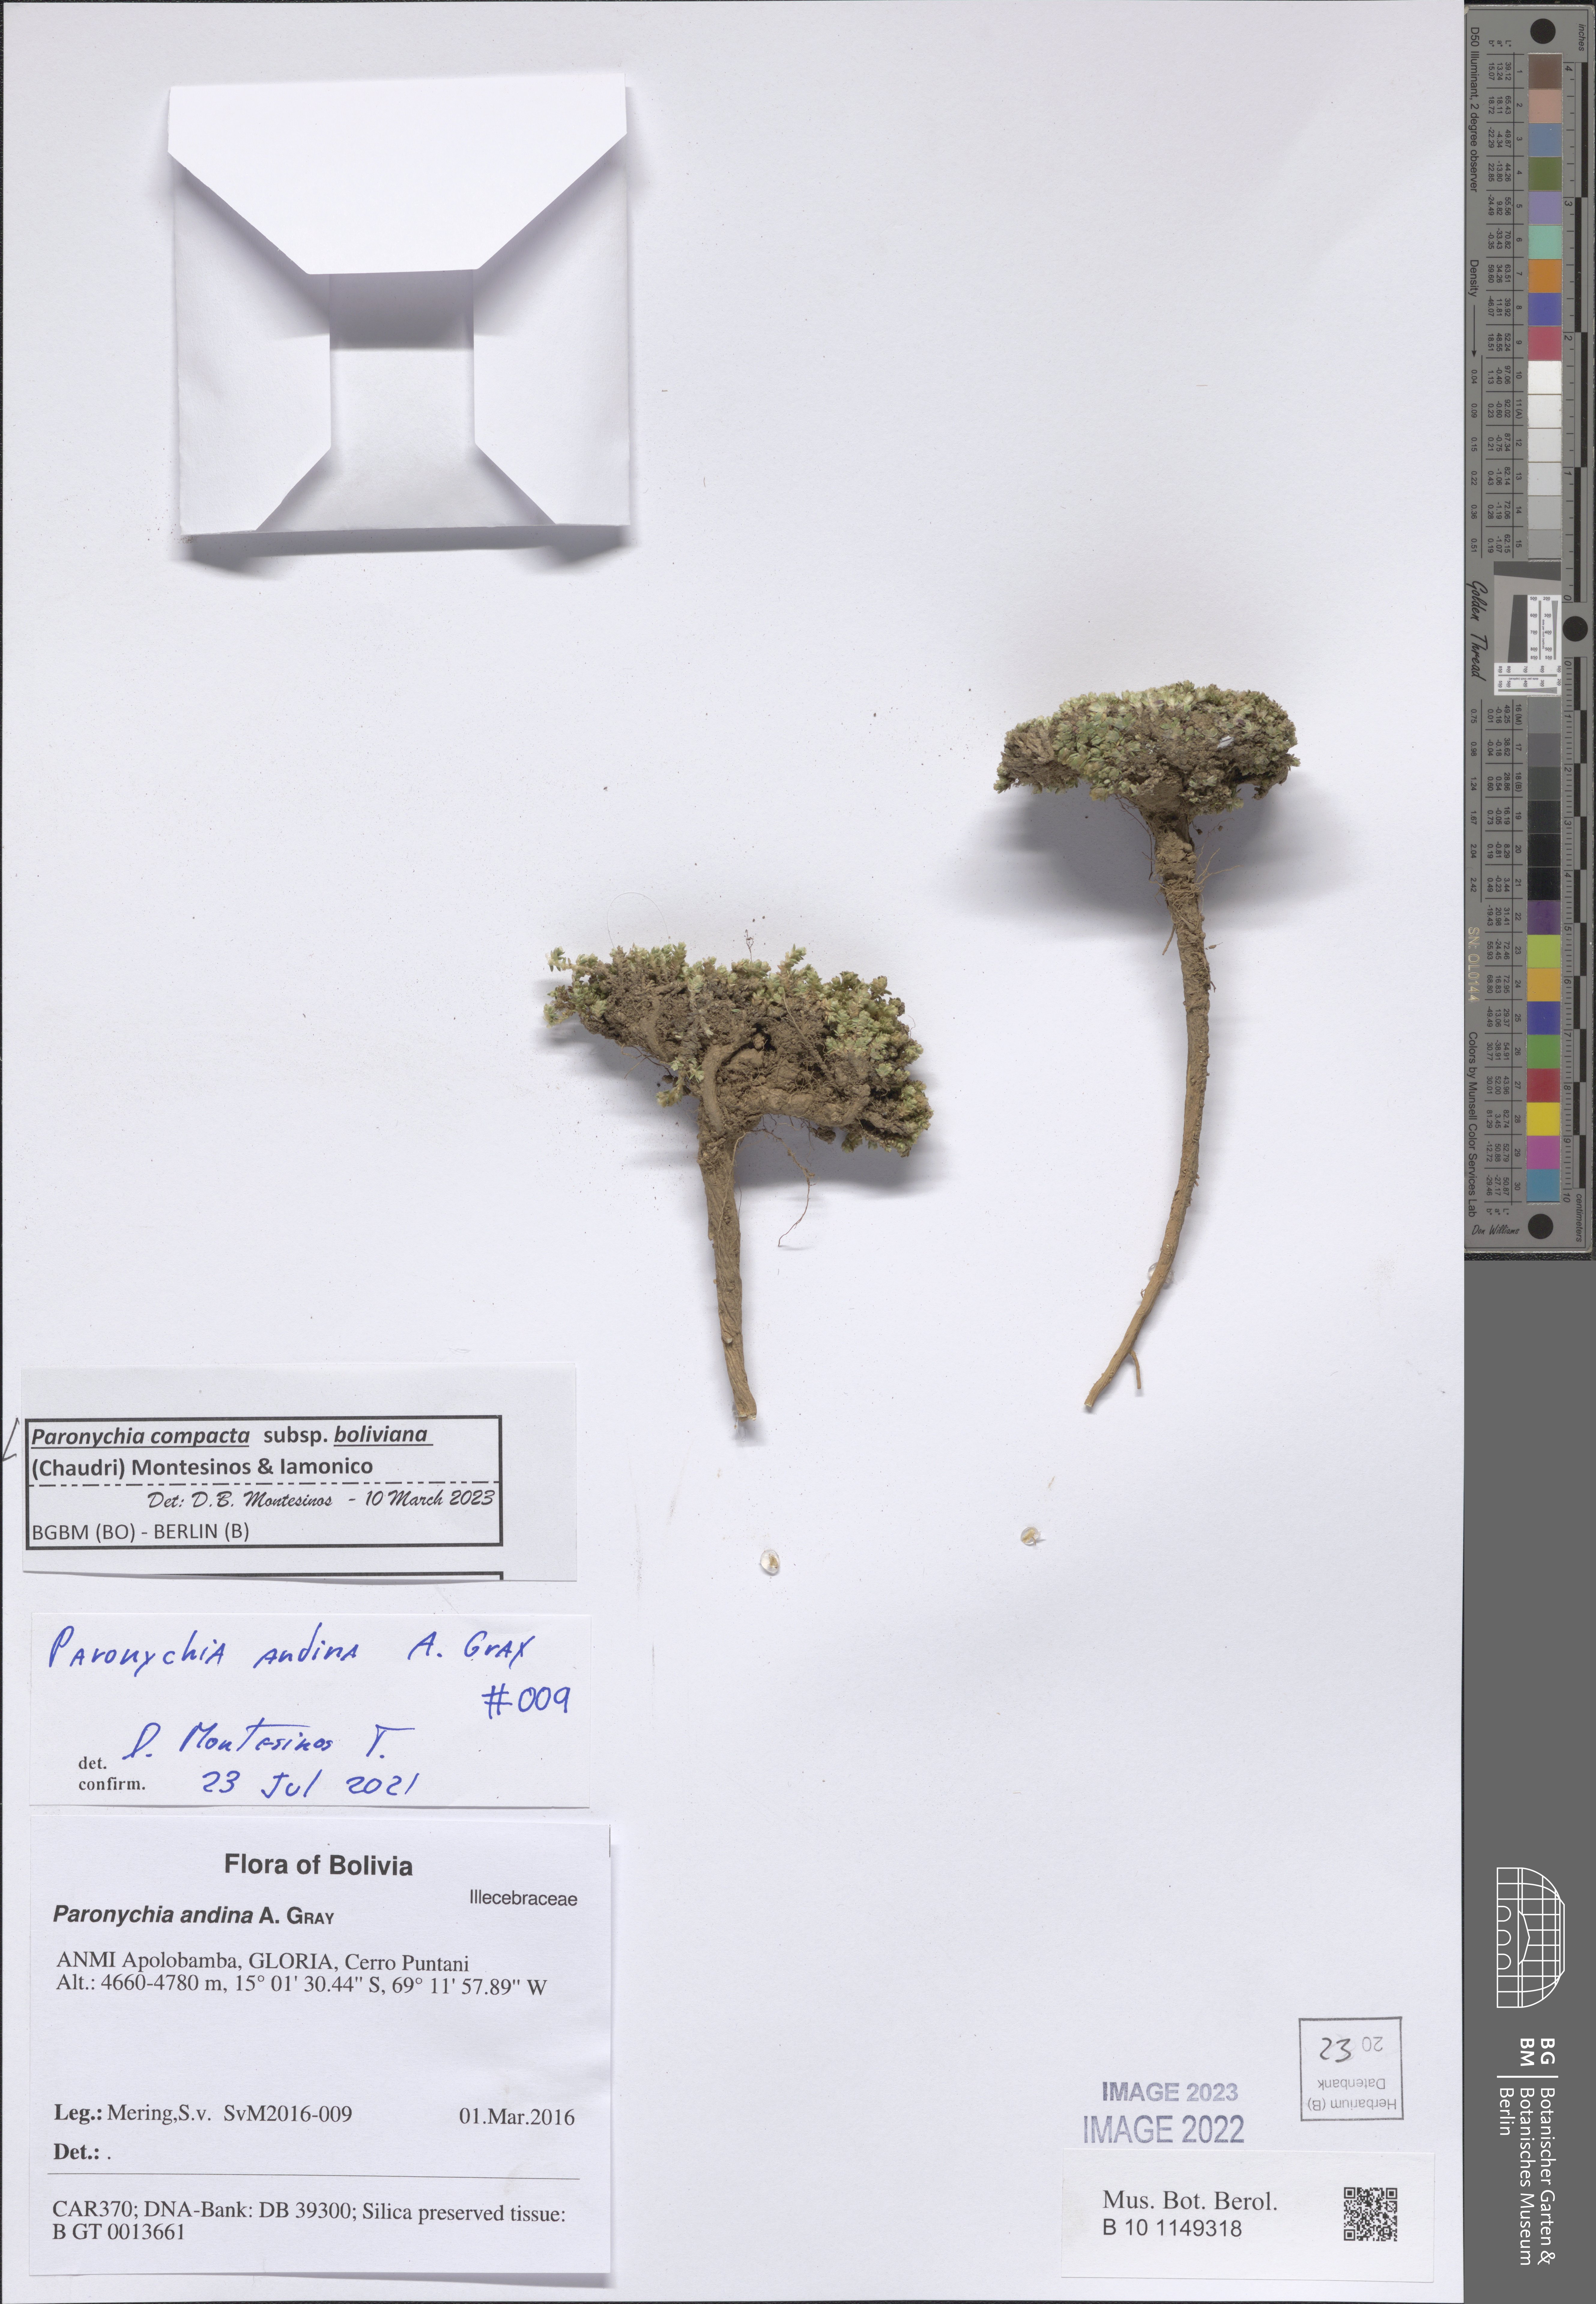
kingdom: Plantae
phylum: Tracheophyta
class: Magnoliopsida
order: Caryophyllales
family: Caryophyllaceae
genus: Paronychia
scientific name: Paronychia
